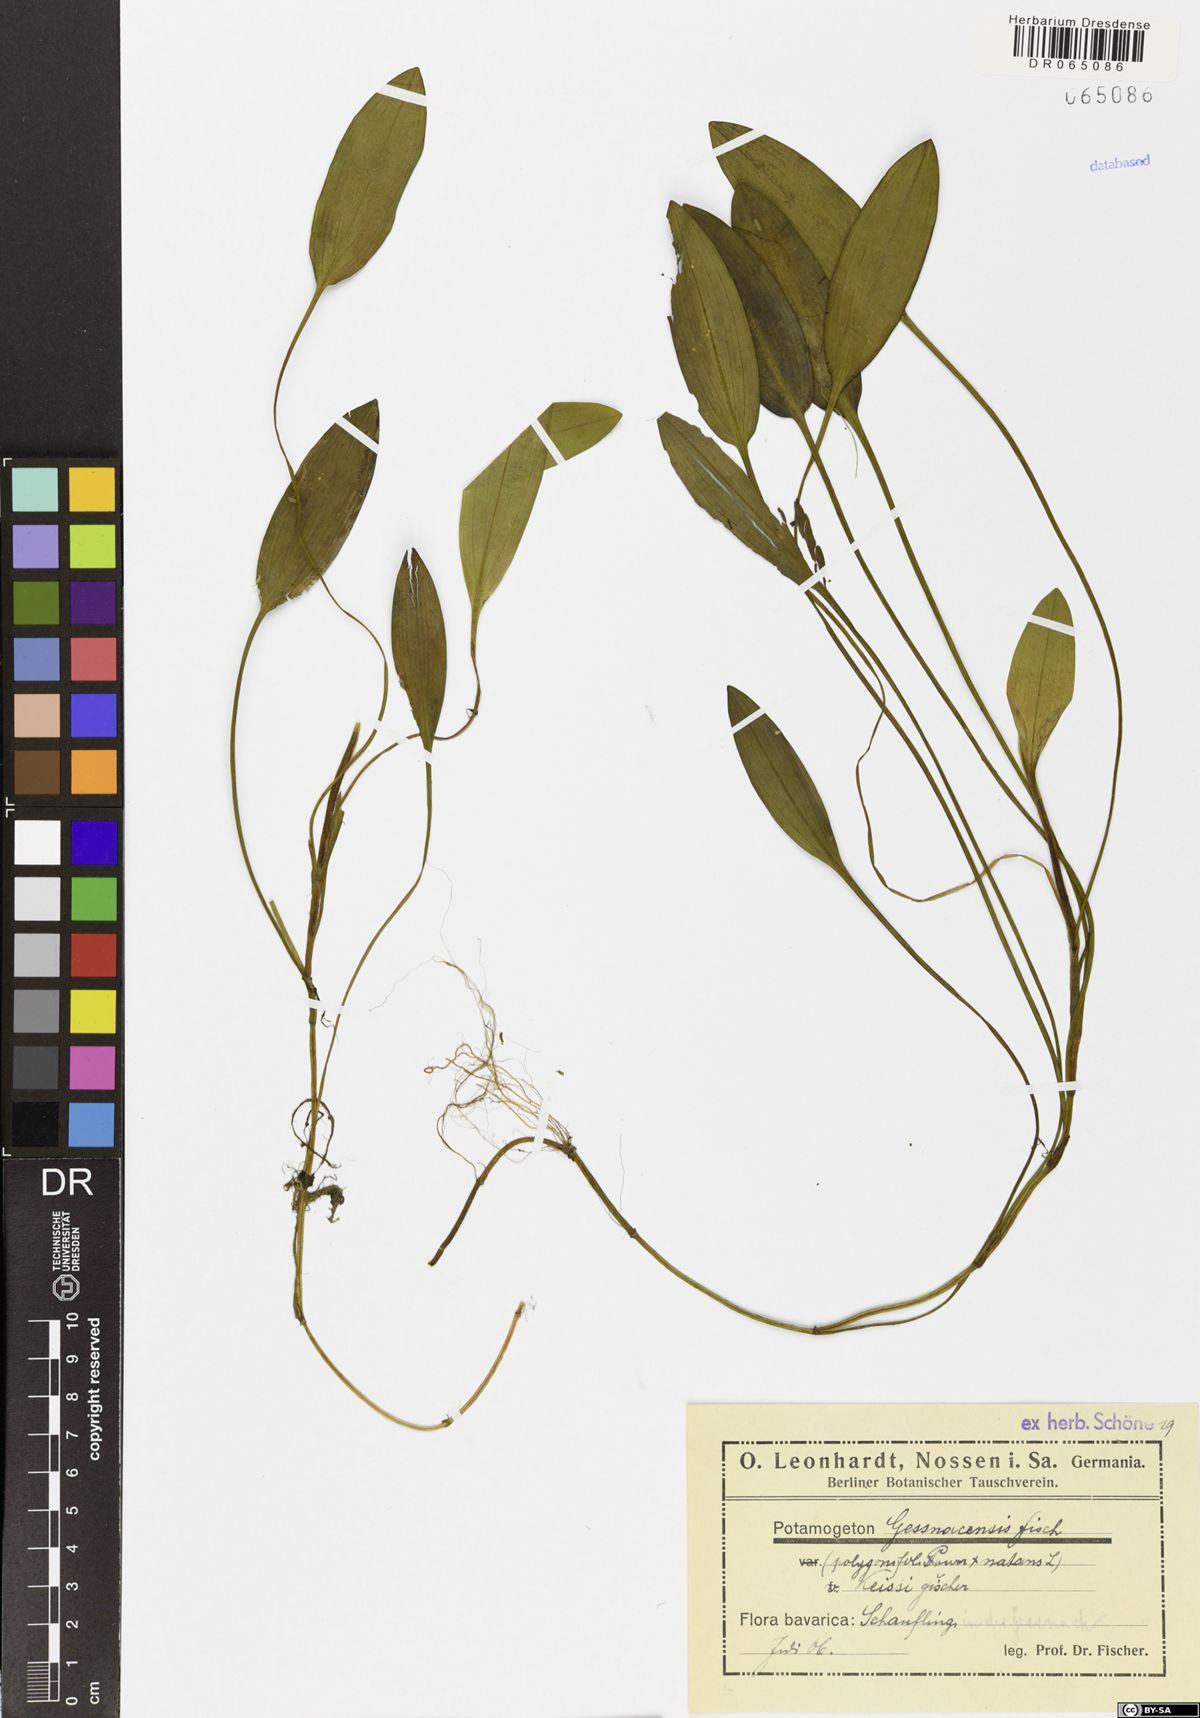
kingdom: Plantae
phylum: Tracheophyta
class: Liliopsida
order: Alismatales
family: Potamogetonaceae
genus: Potamogeton
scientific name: Potamogeton gessnacensis
